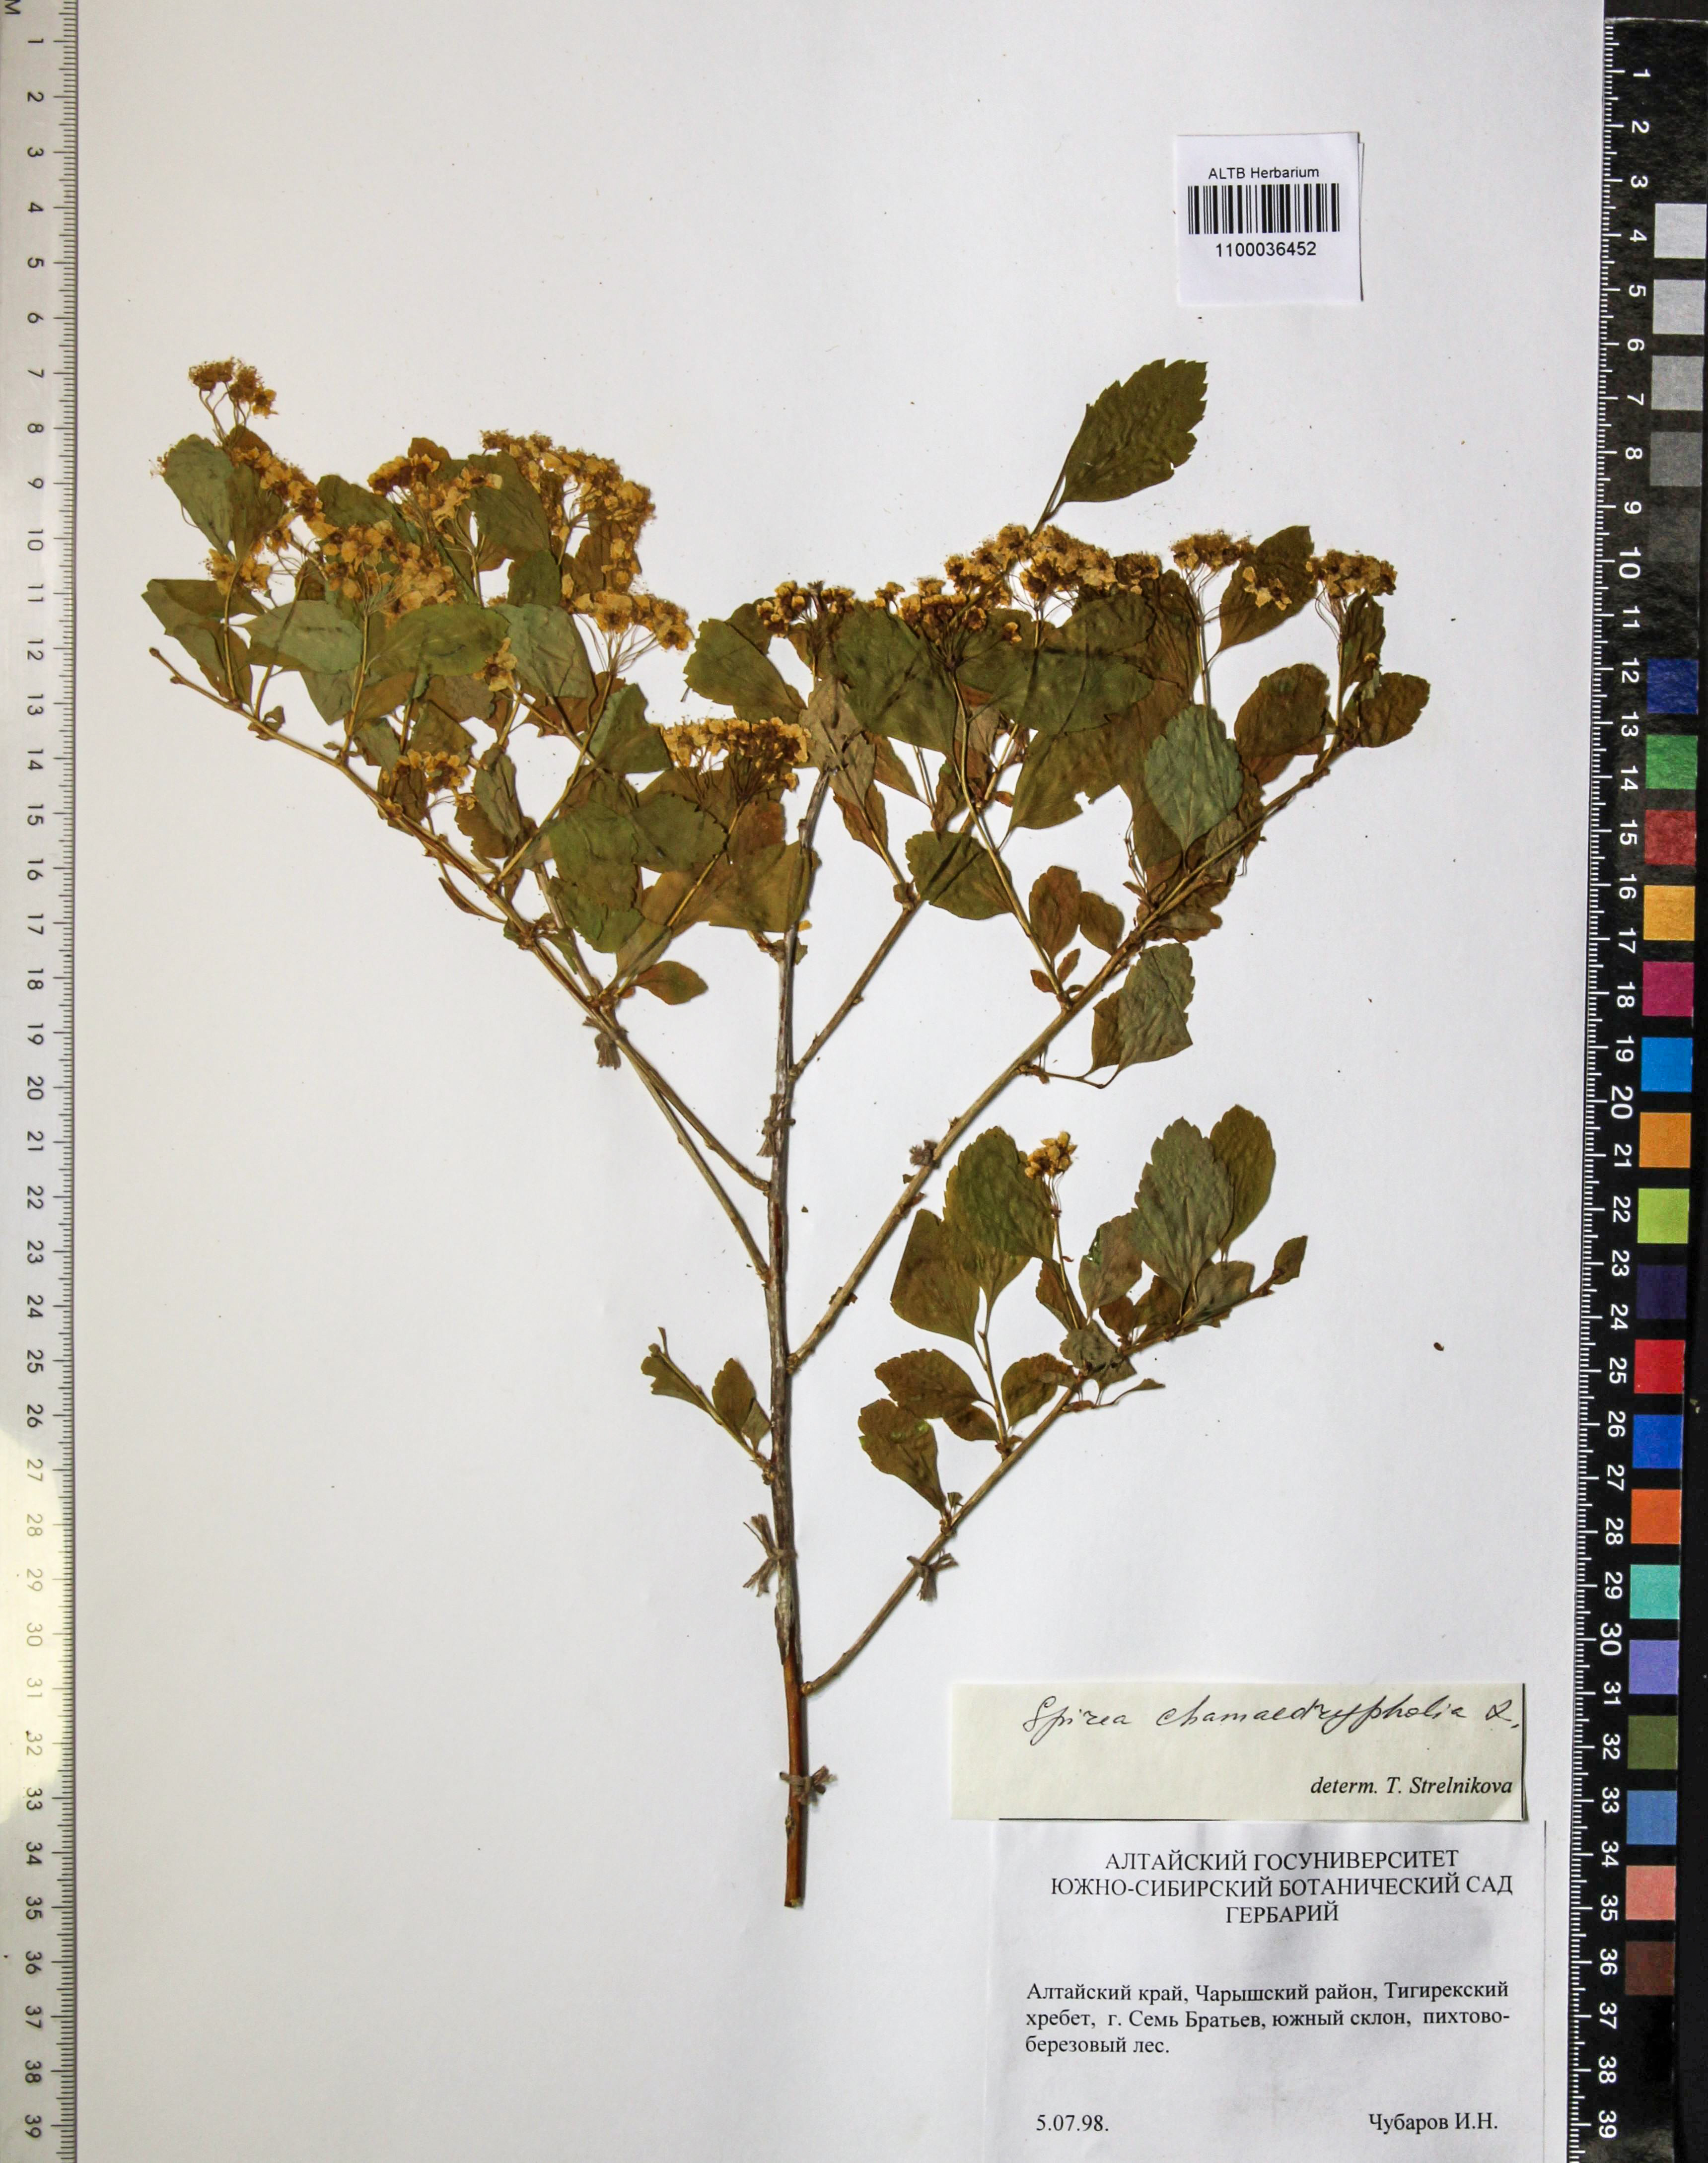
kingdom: Plantae
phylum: Tracheophyta
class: Magnoliopsida
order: Rosales
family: Rosaceae
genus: Spiraea
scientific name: Spiraea chamaedryfolia
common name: Elm-leaved spiraea
